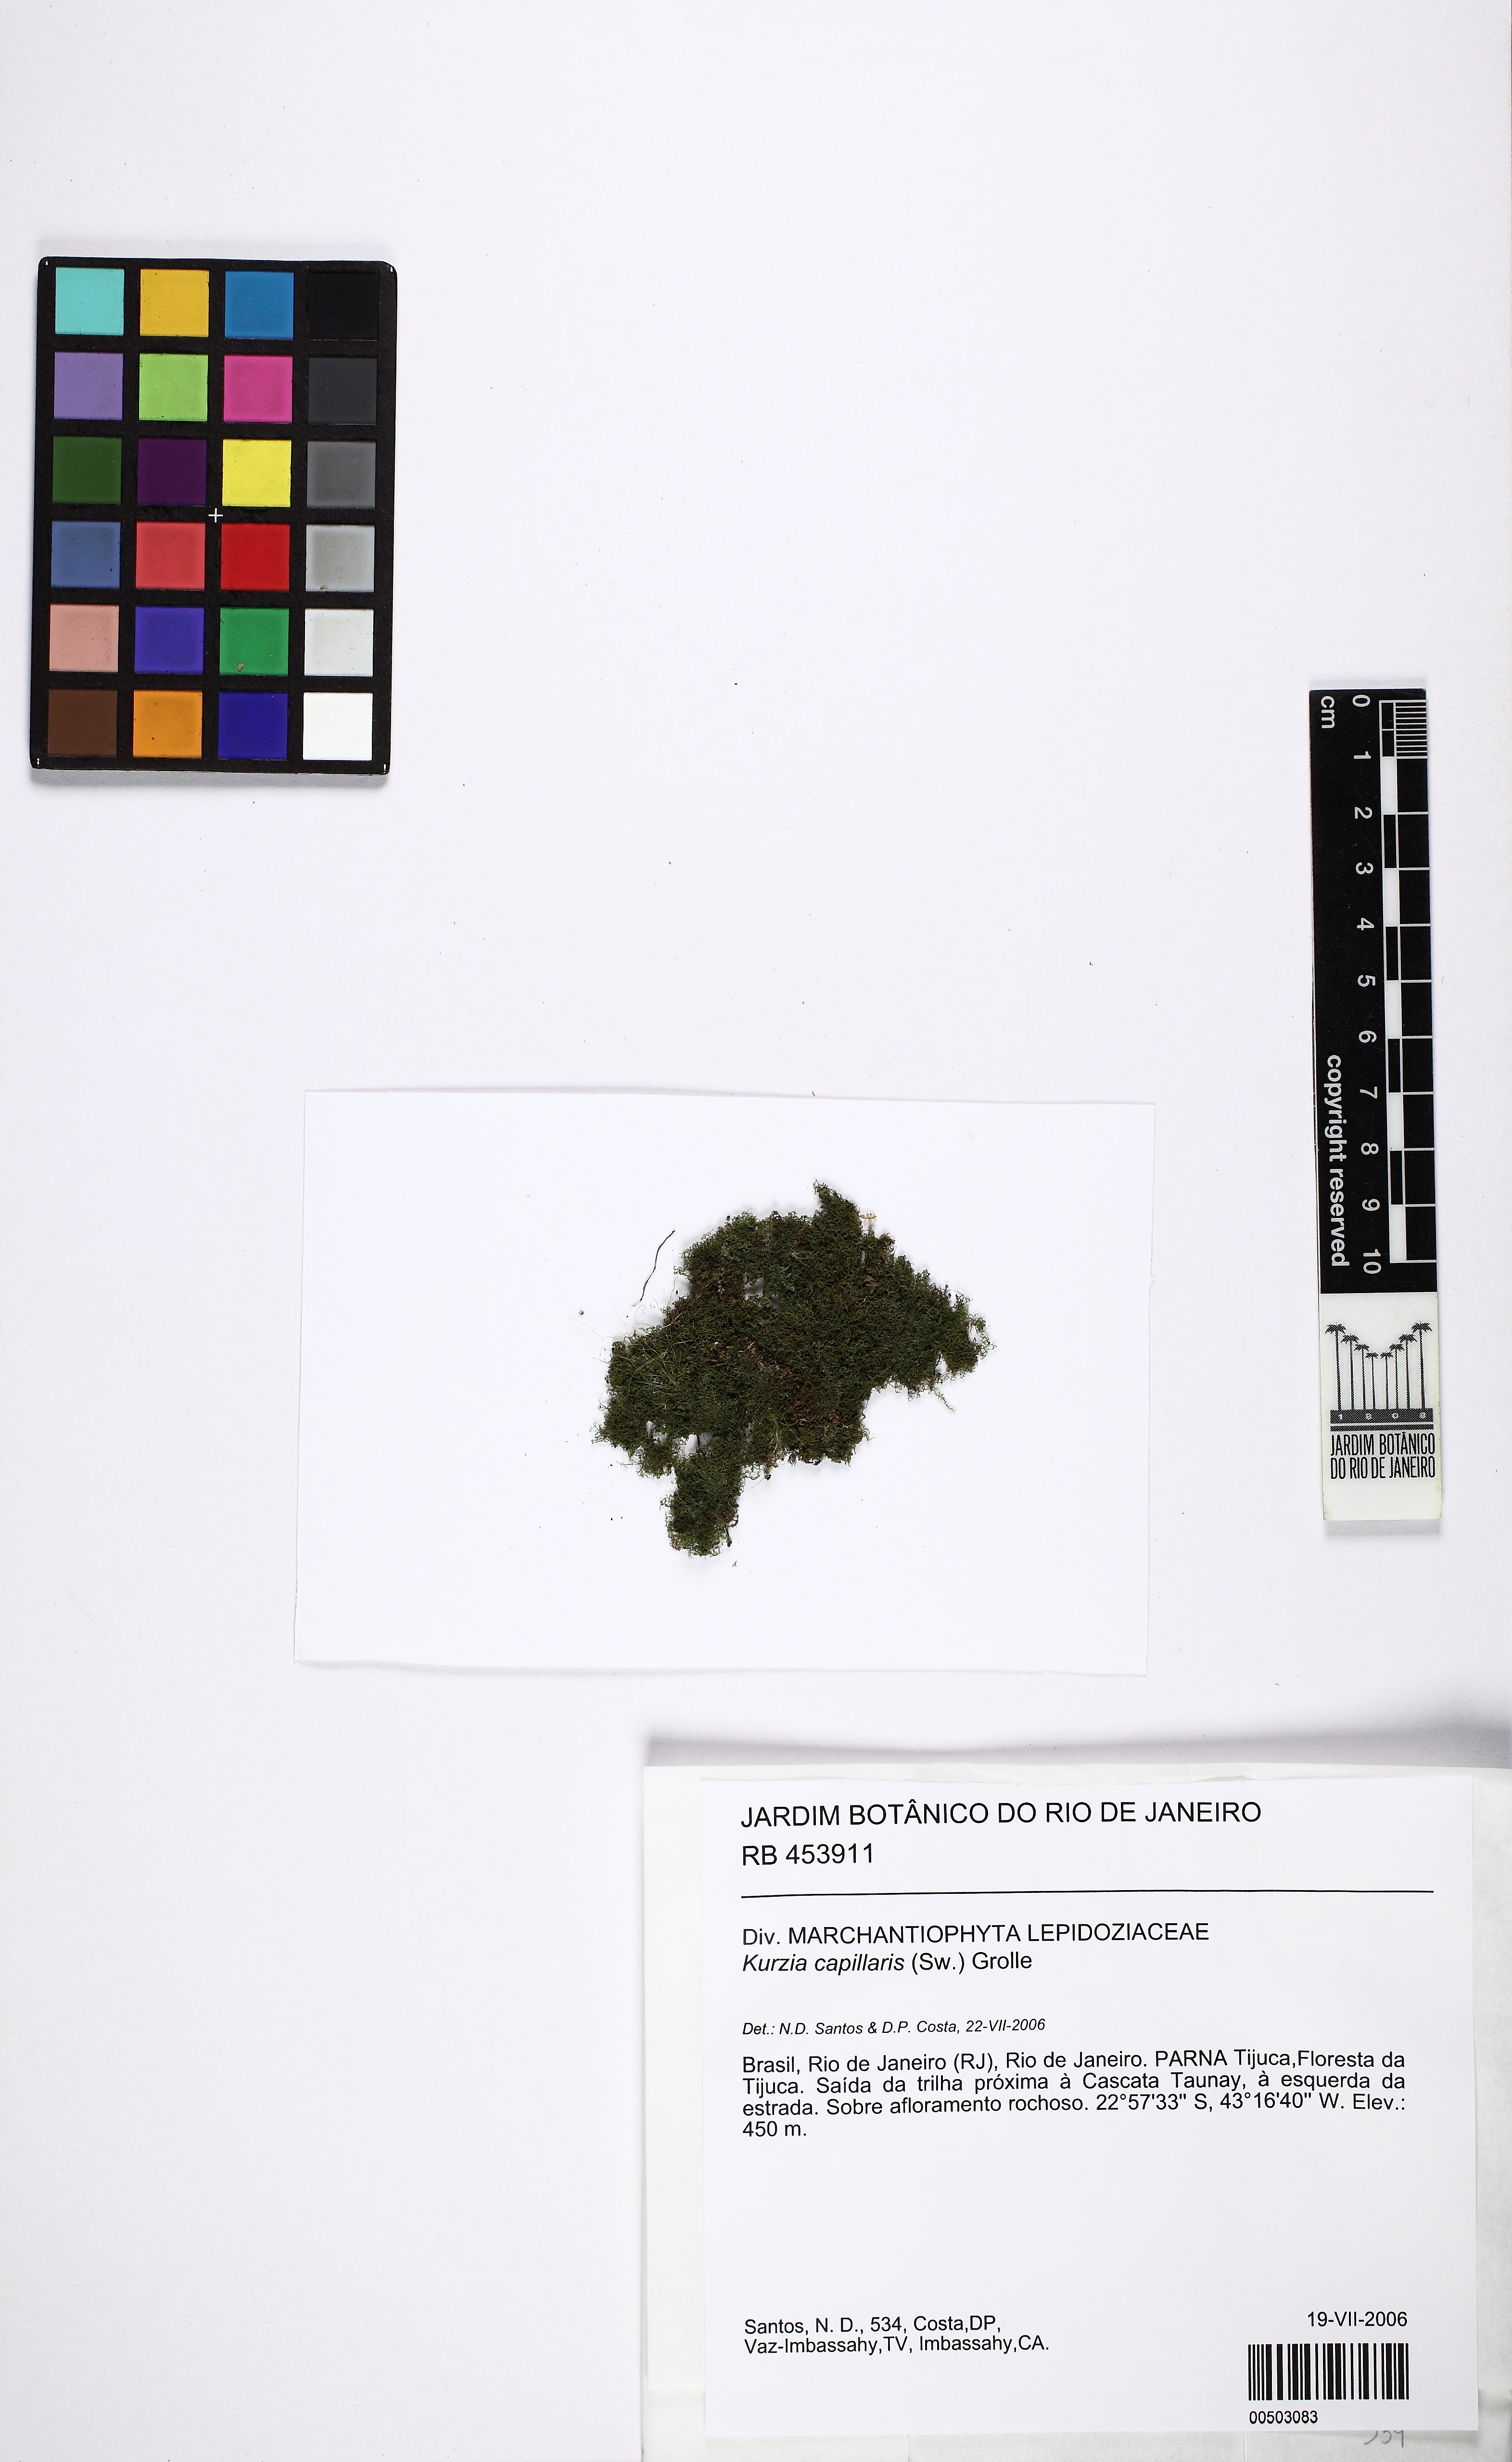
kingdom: Plantae
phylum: Marchantiophyta
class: Jungermanniopsida
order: Jungermanniales
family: Lepidoziaceae
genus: Kurzia
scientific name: Kurzia capillaris
